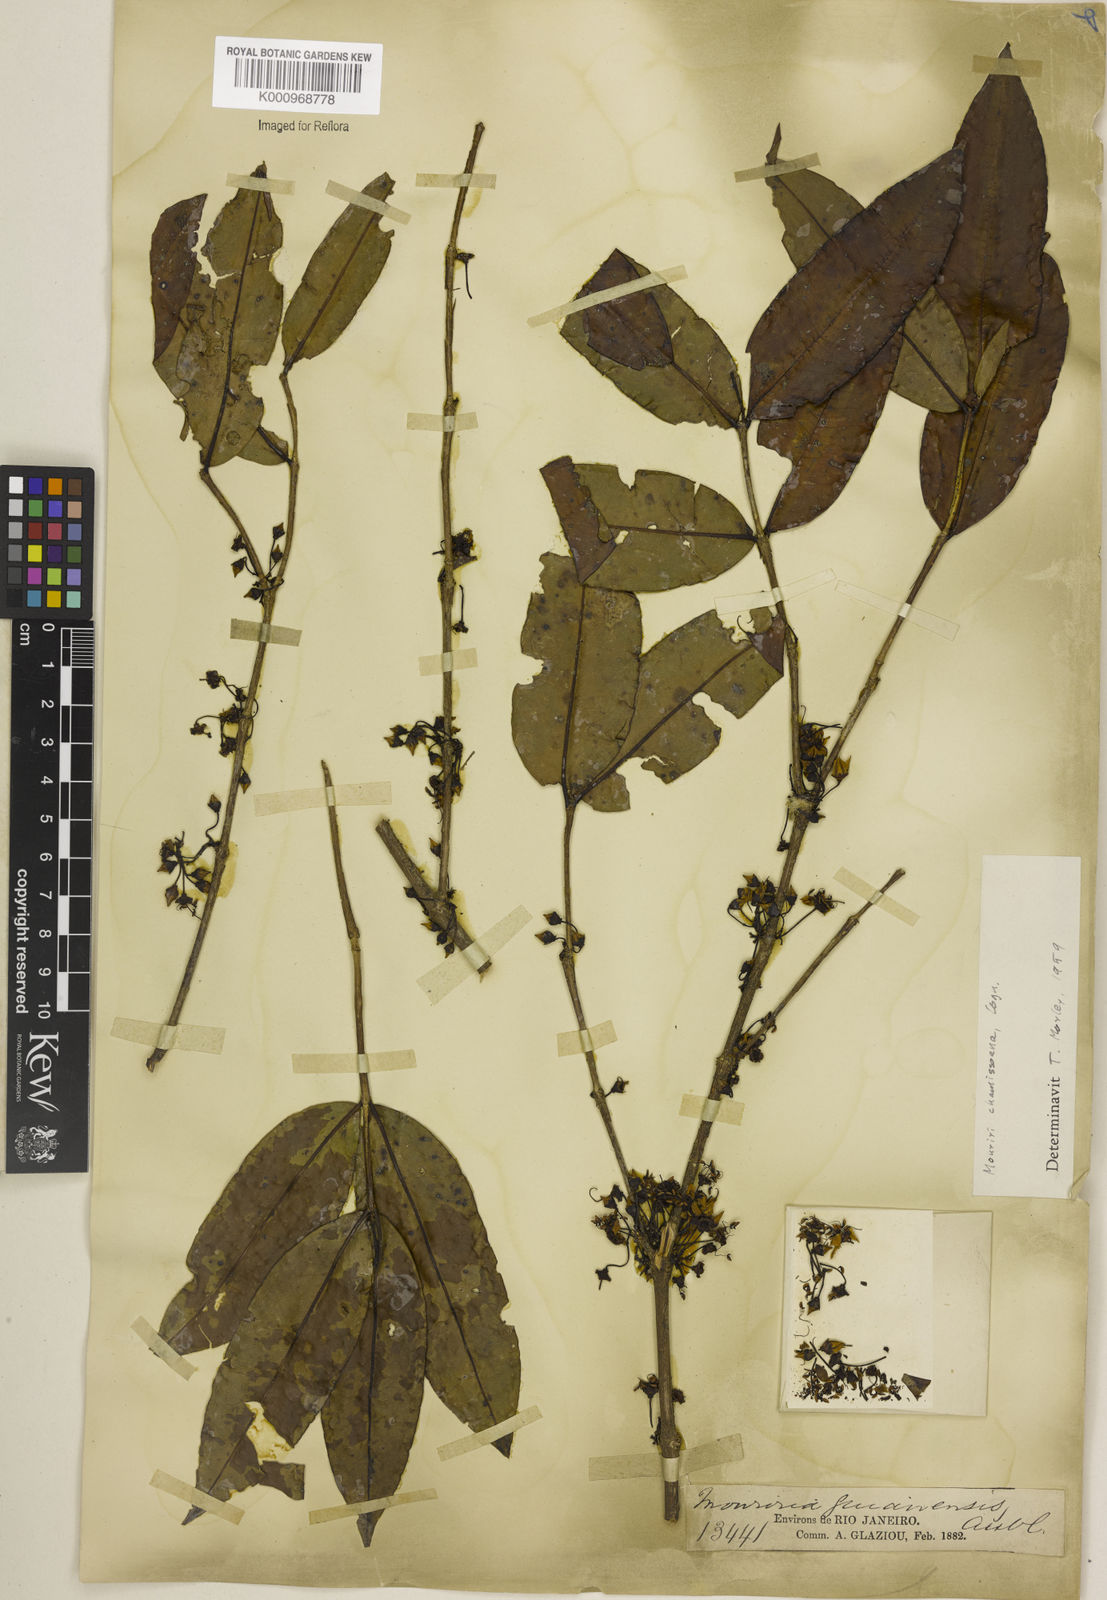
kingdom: Plantae
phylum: Tracheophyta
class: Magnoliopsida
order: Myrtales
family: Melastomataceae
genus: Mouriri
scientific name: Mouriri chamissoana
